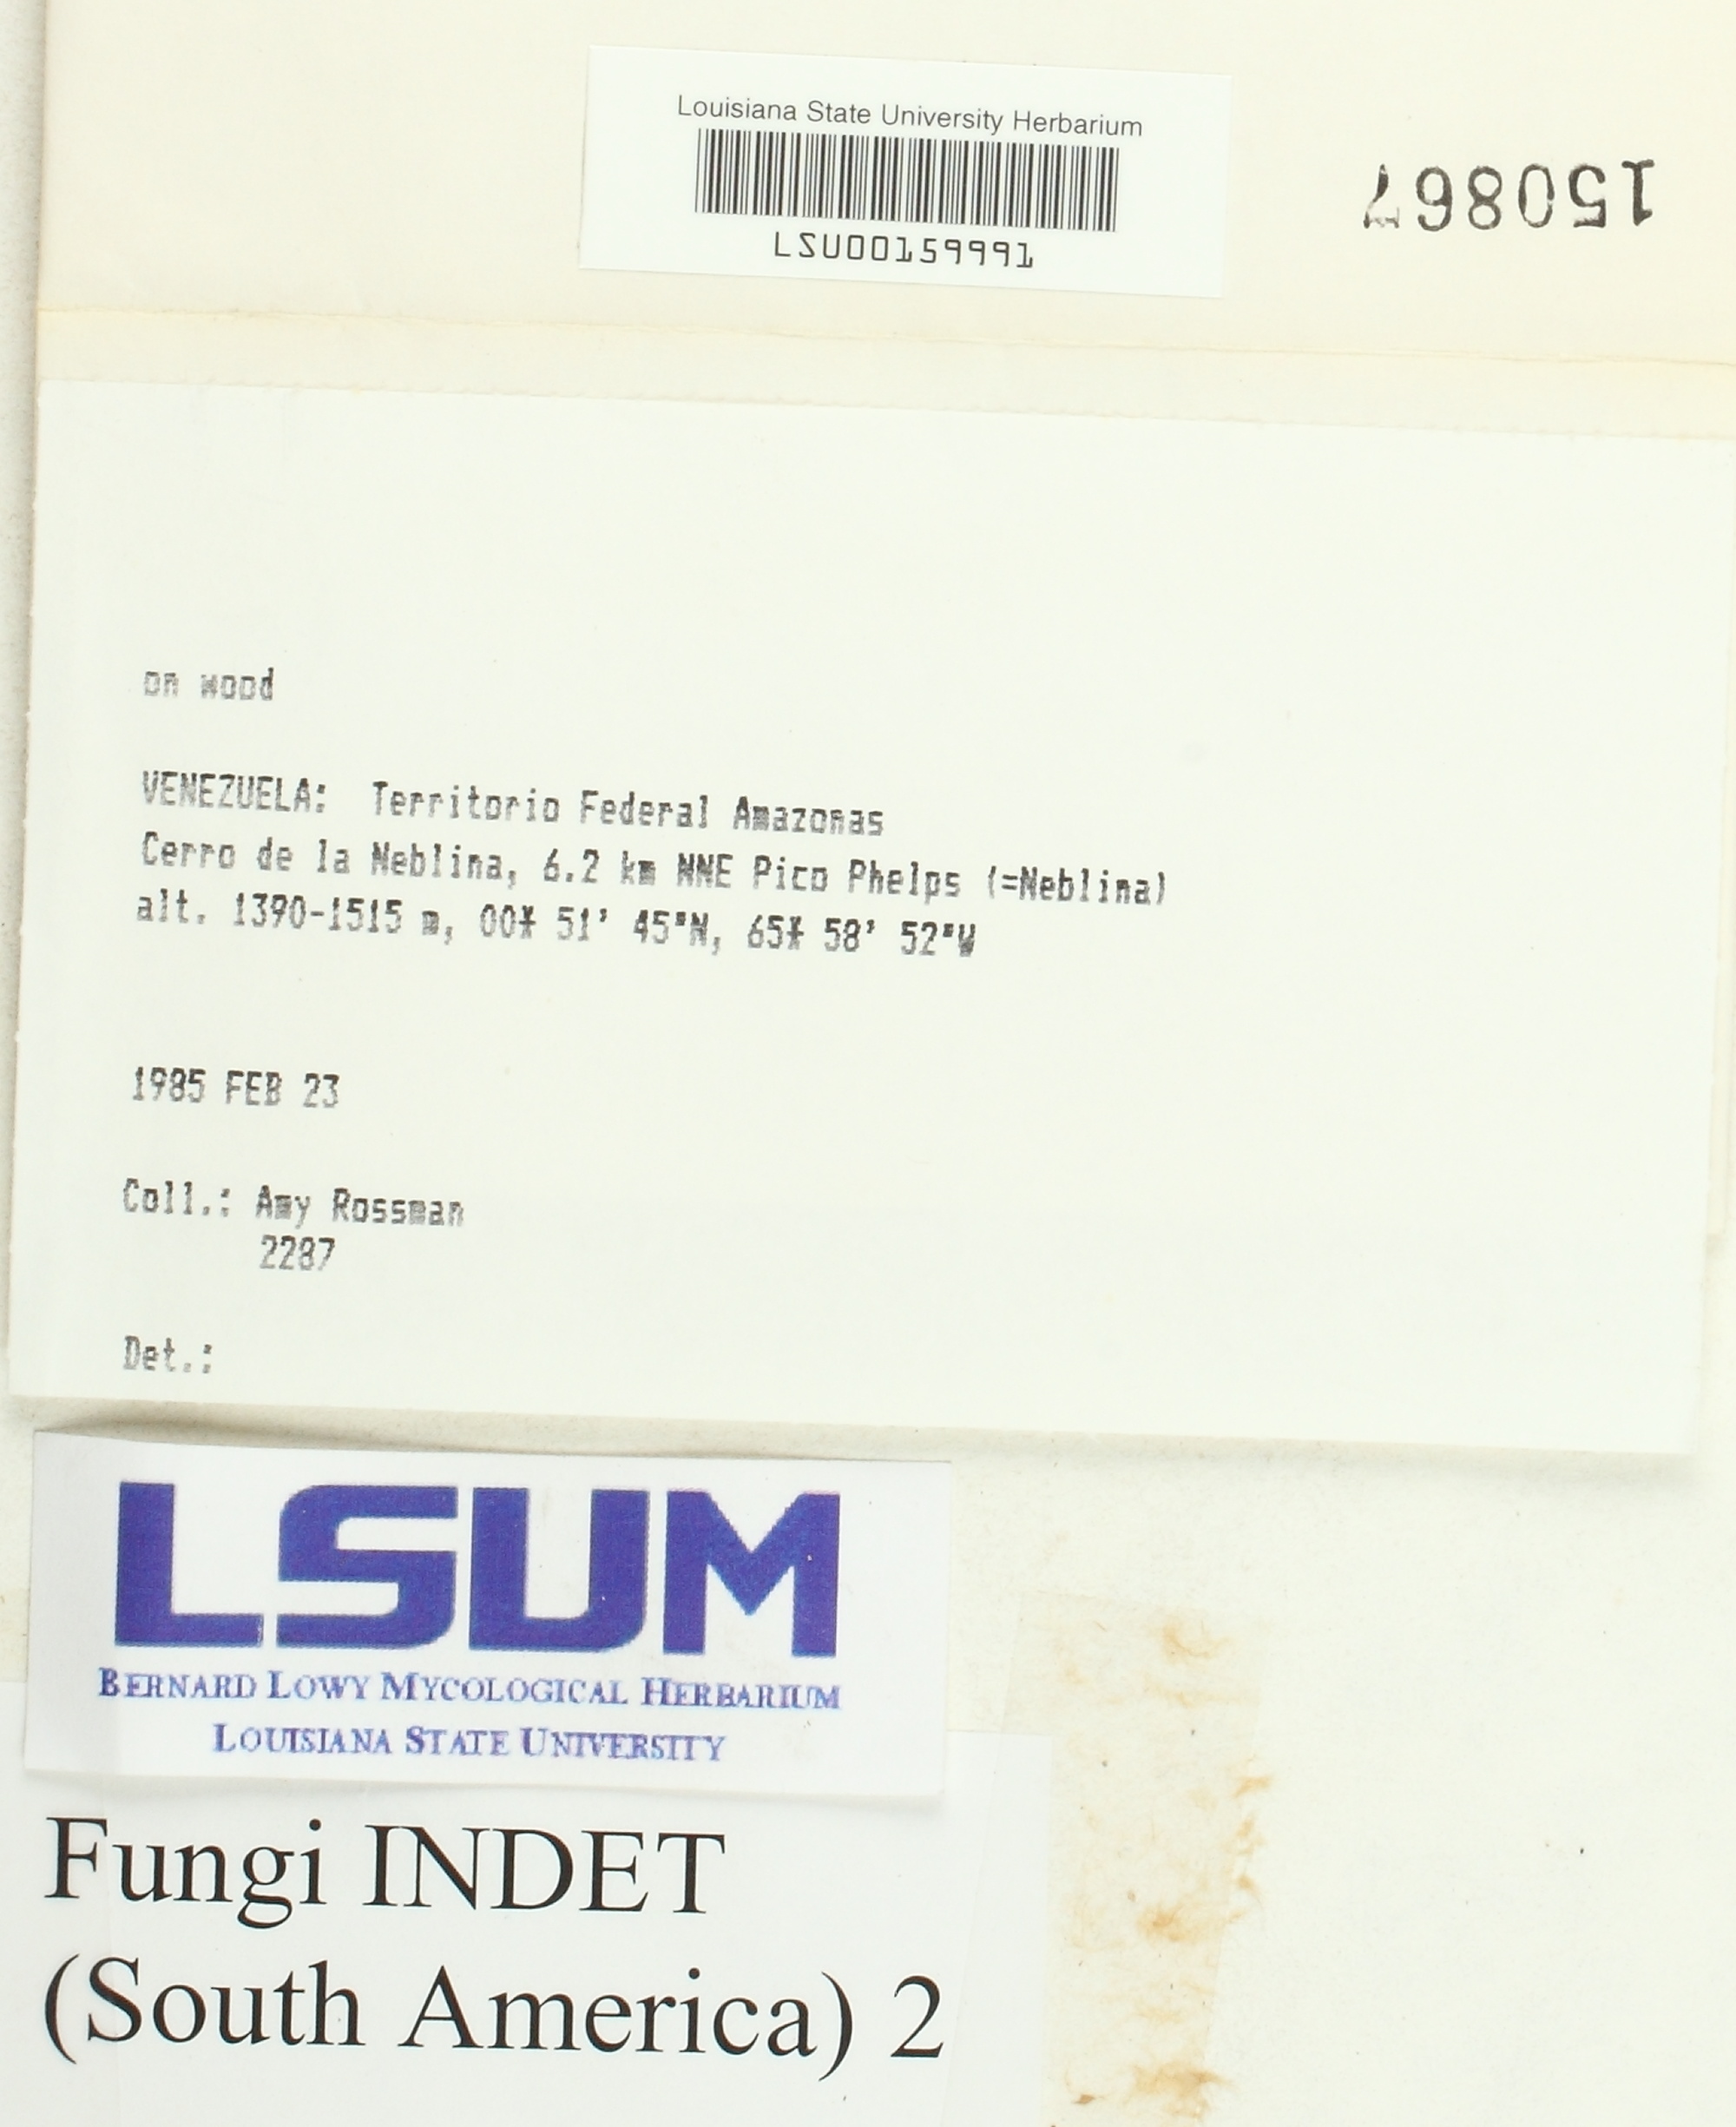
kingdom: Fungi
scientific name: Fungi
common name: Fungi
